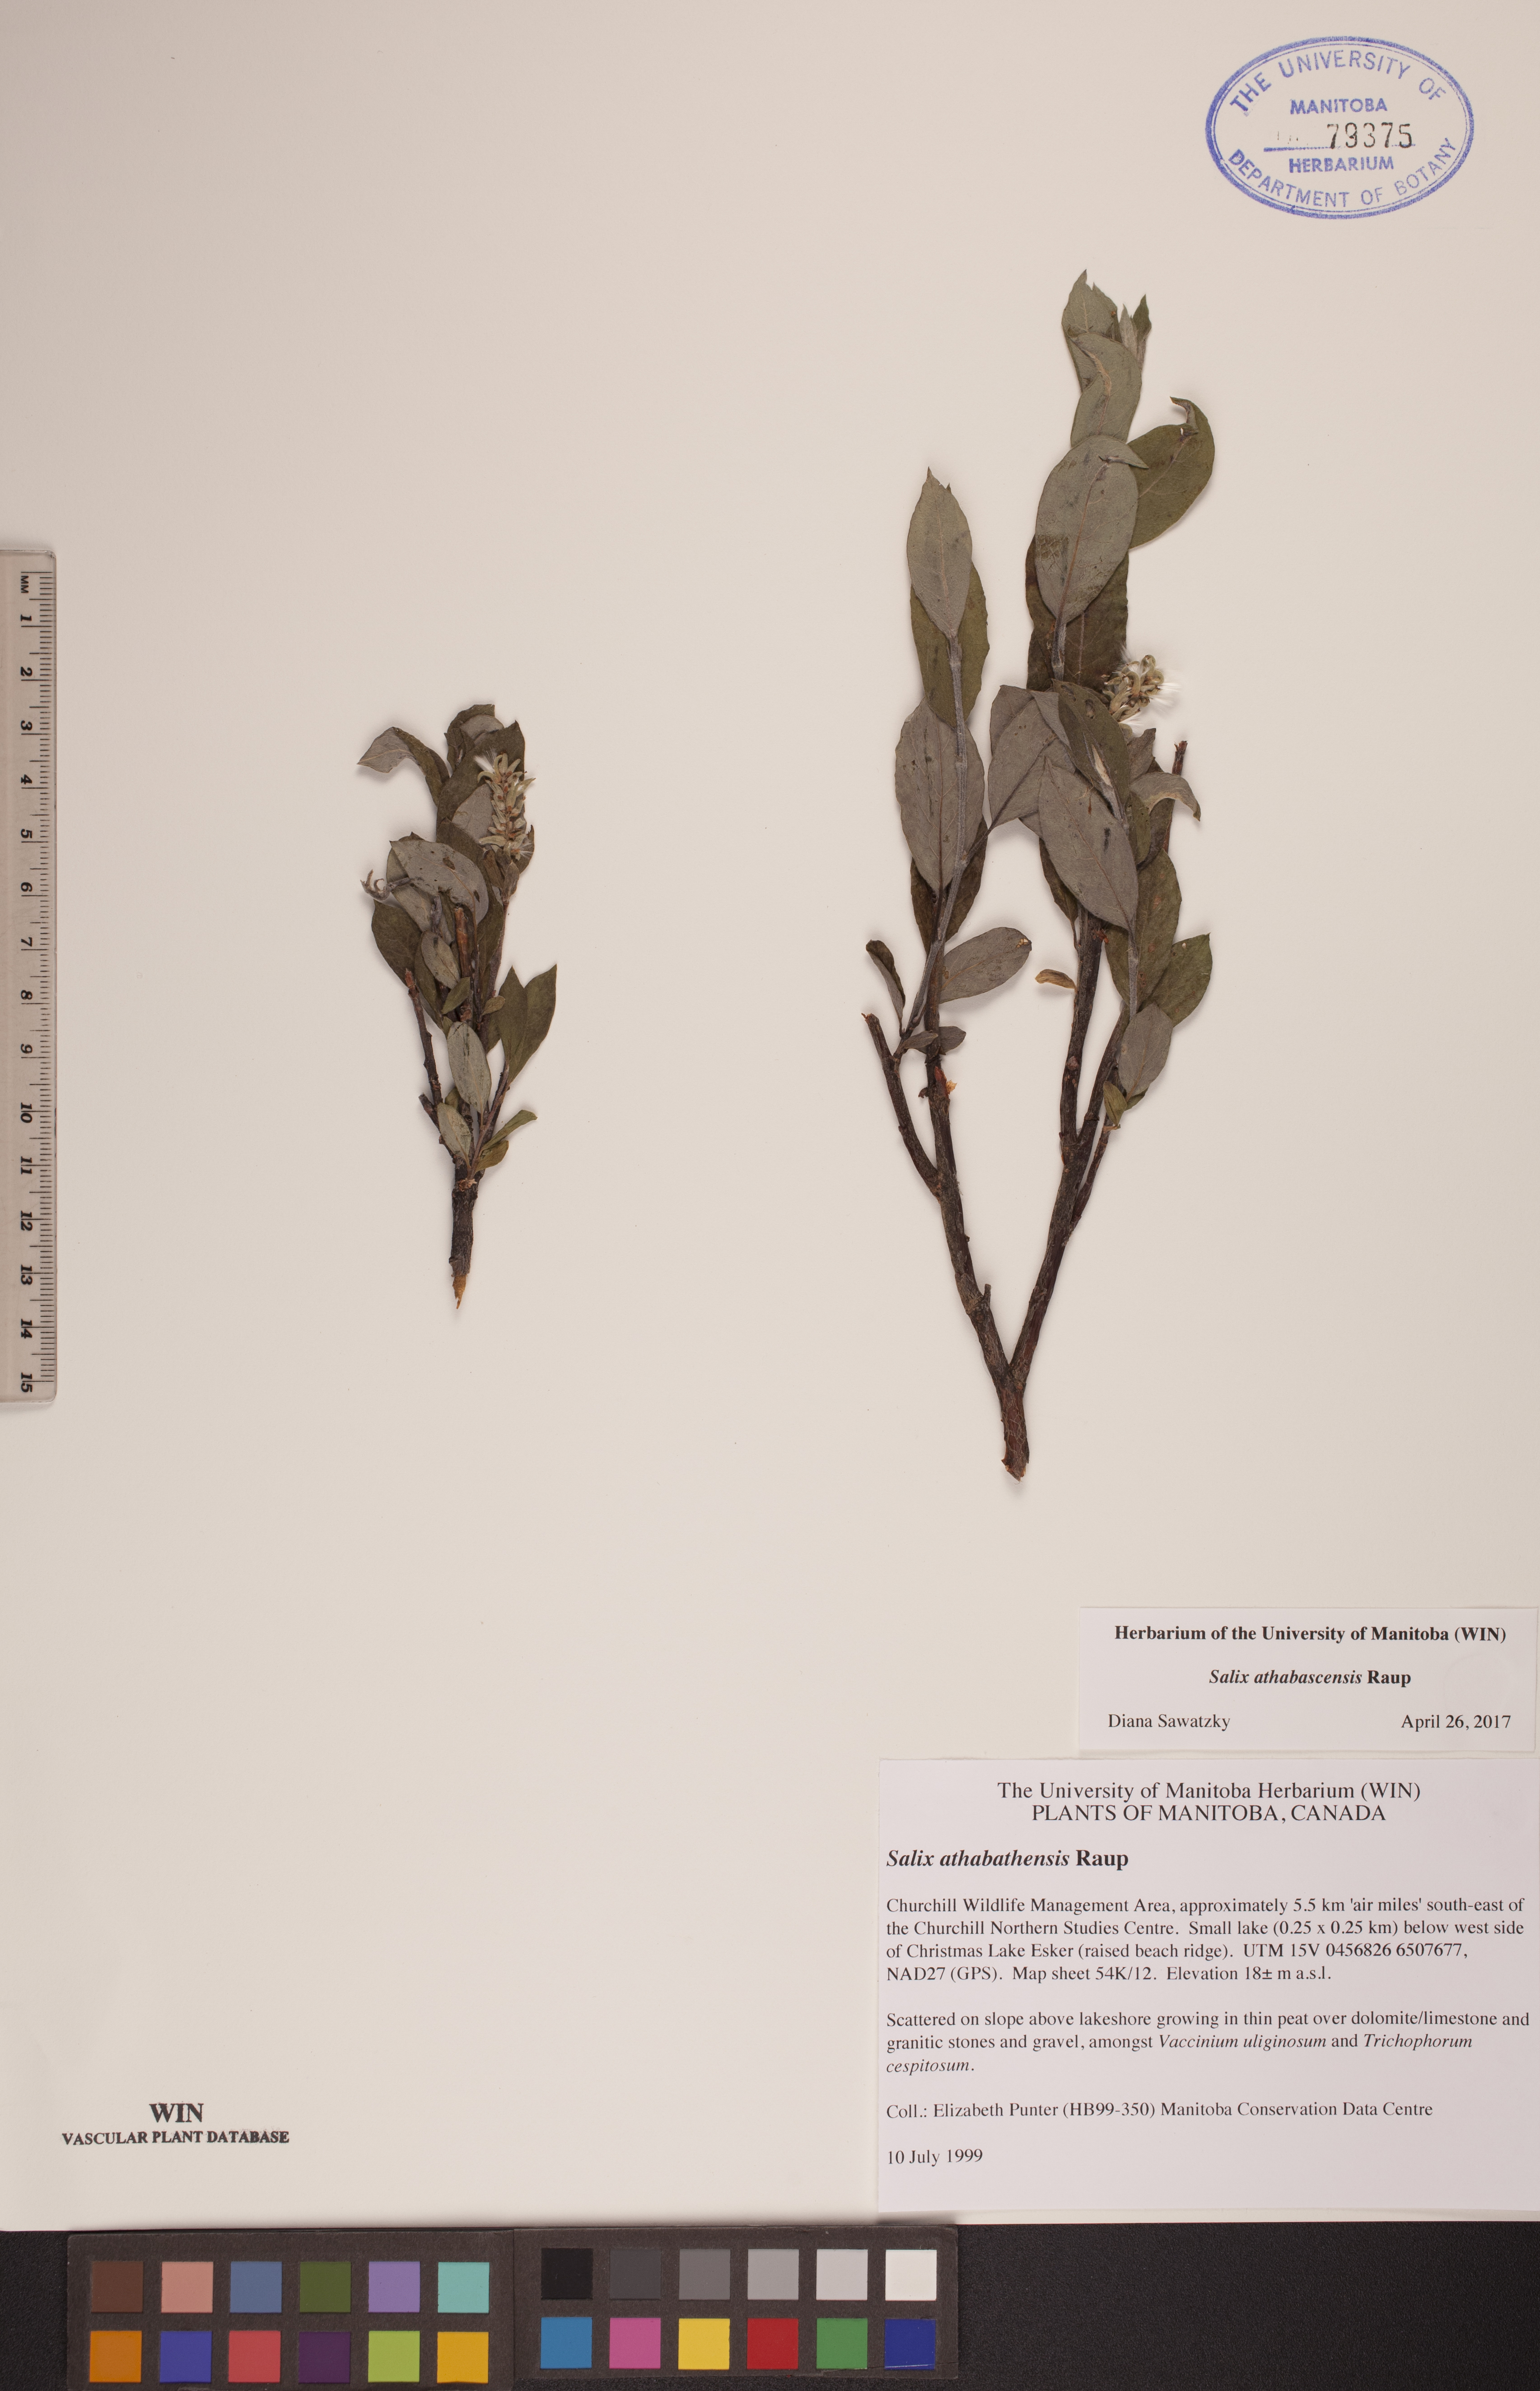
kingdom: Plantae
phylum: Tracheophyta
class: Magnoliopsida
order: Malpighiales
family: Salicaceae
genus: Salix
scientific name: Salix athabascensis
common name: Athabasca willow
